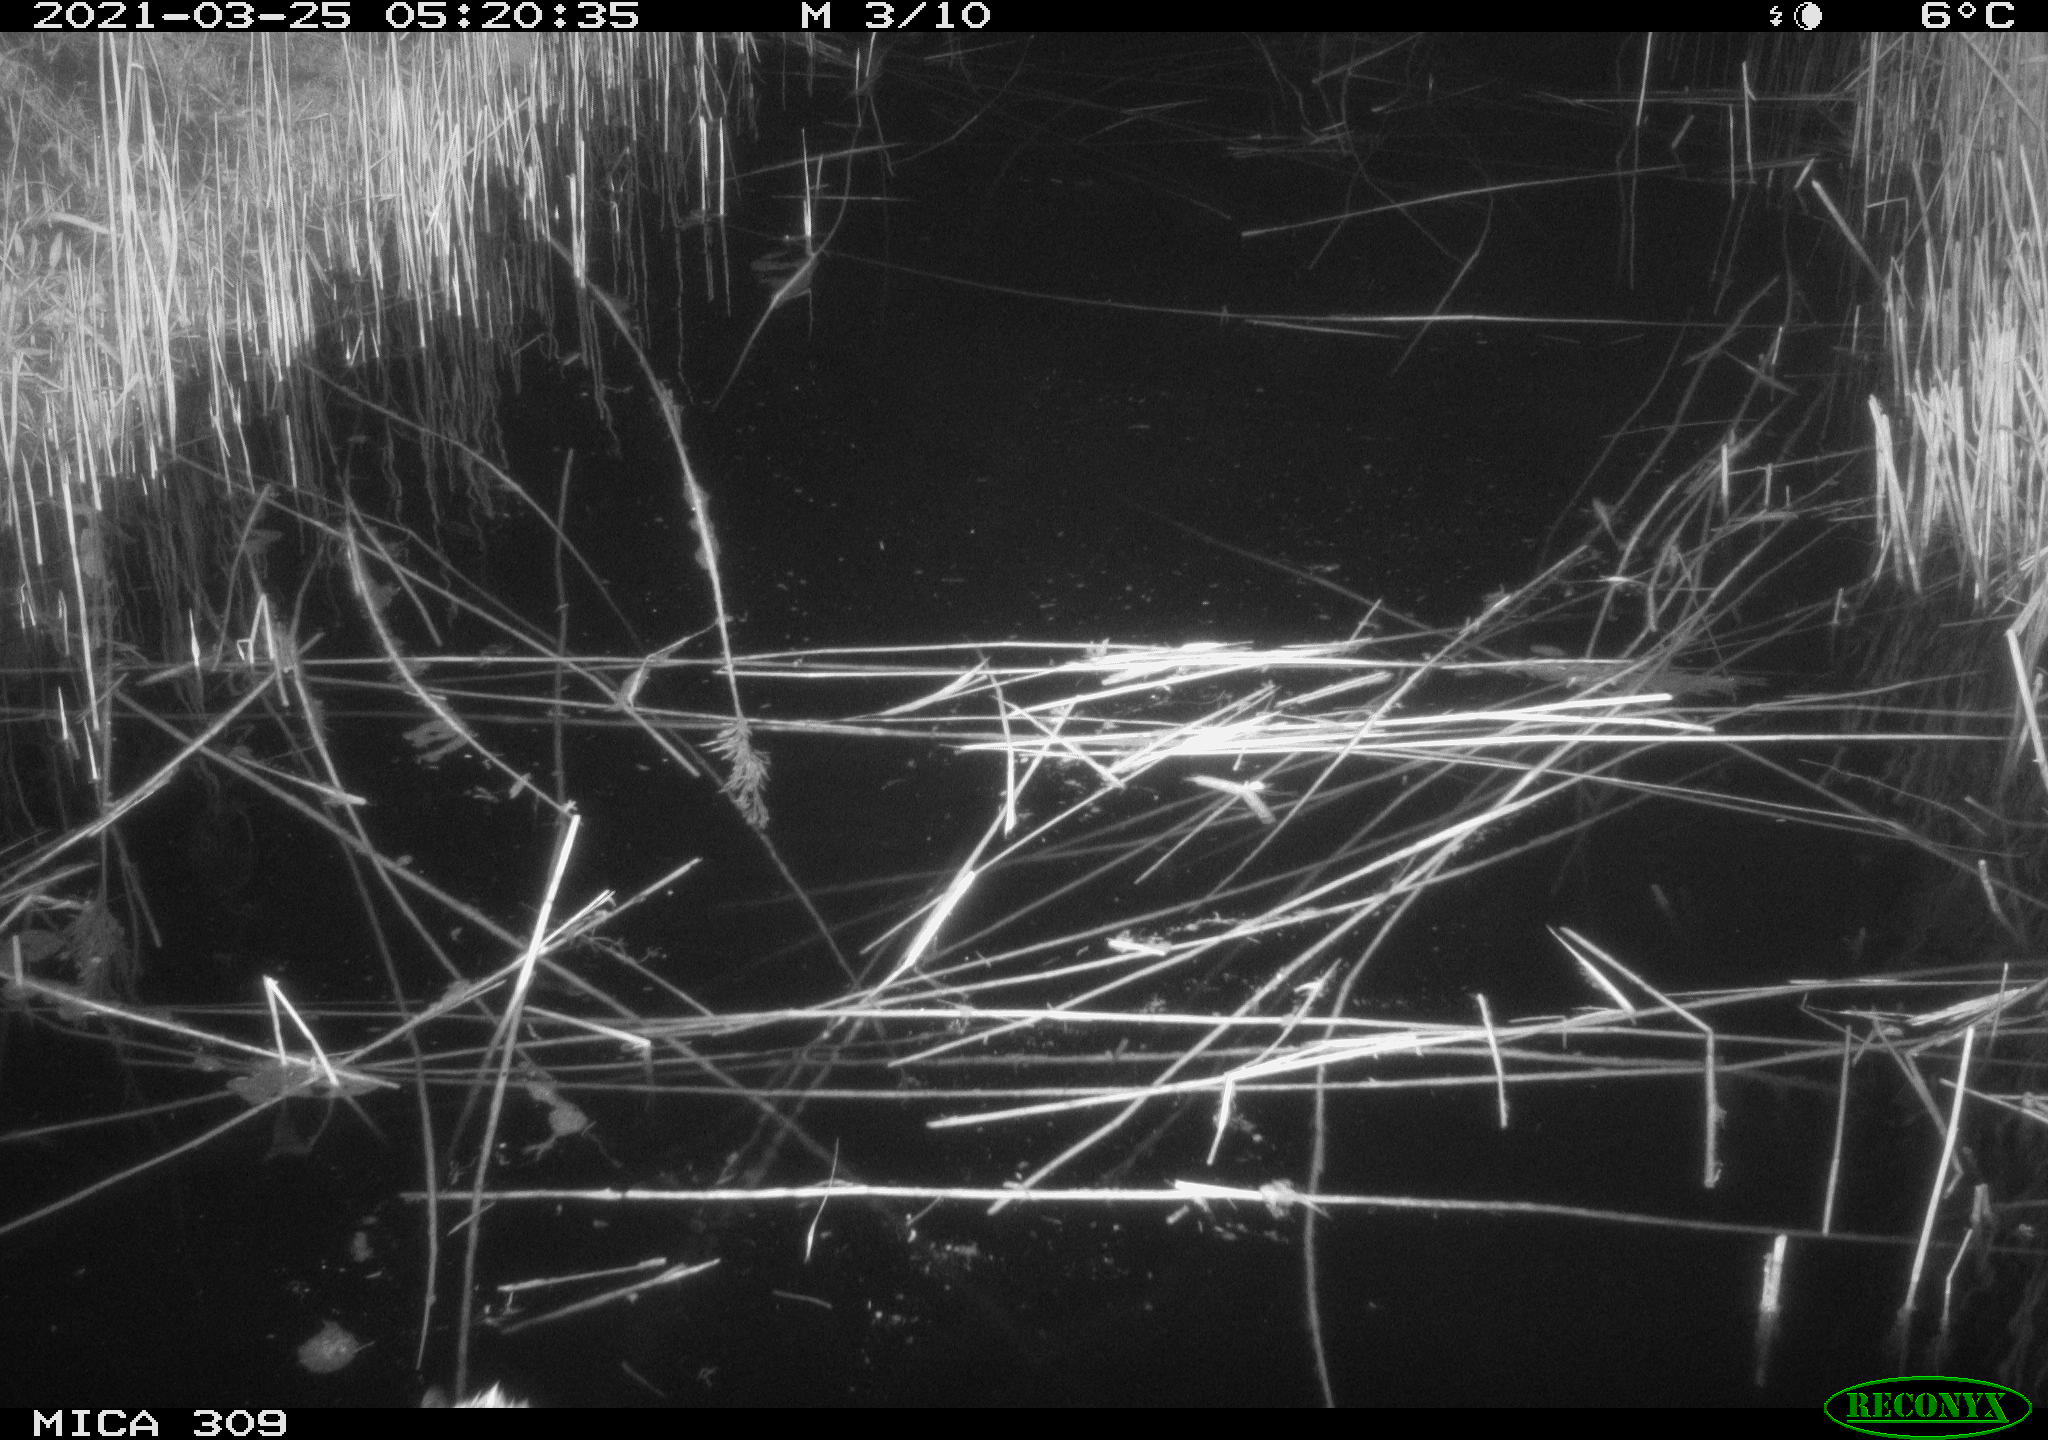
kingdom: Animalia
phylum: Chordata
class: Aves
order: Anseriformes
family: Anatidae
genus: Anas
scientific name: Anas platyrhynchos
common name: Mallard
